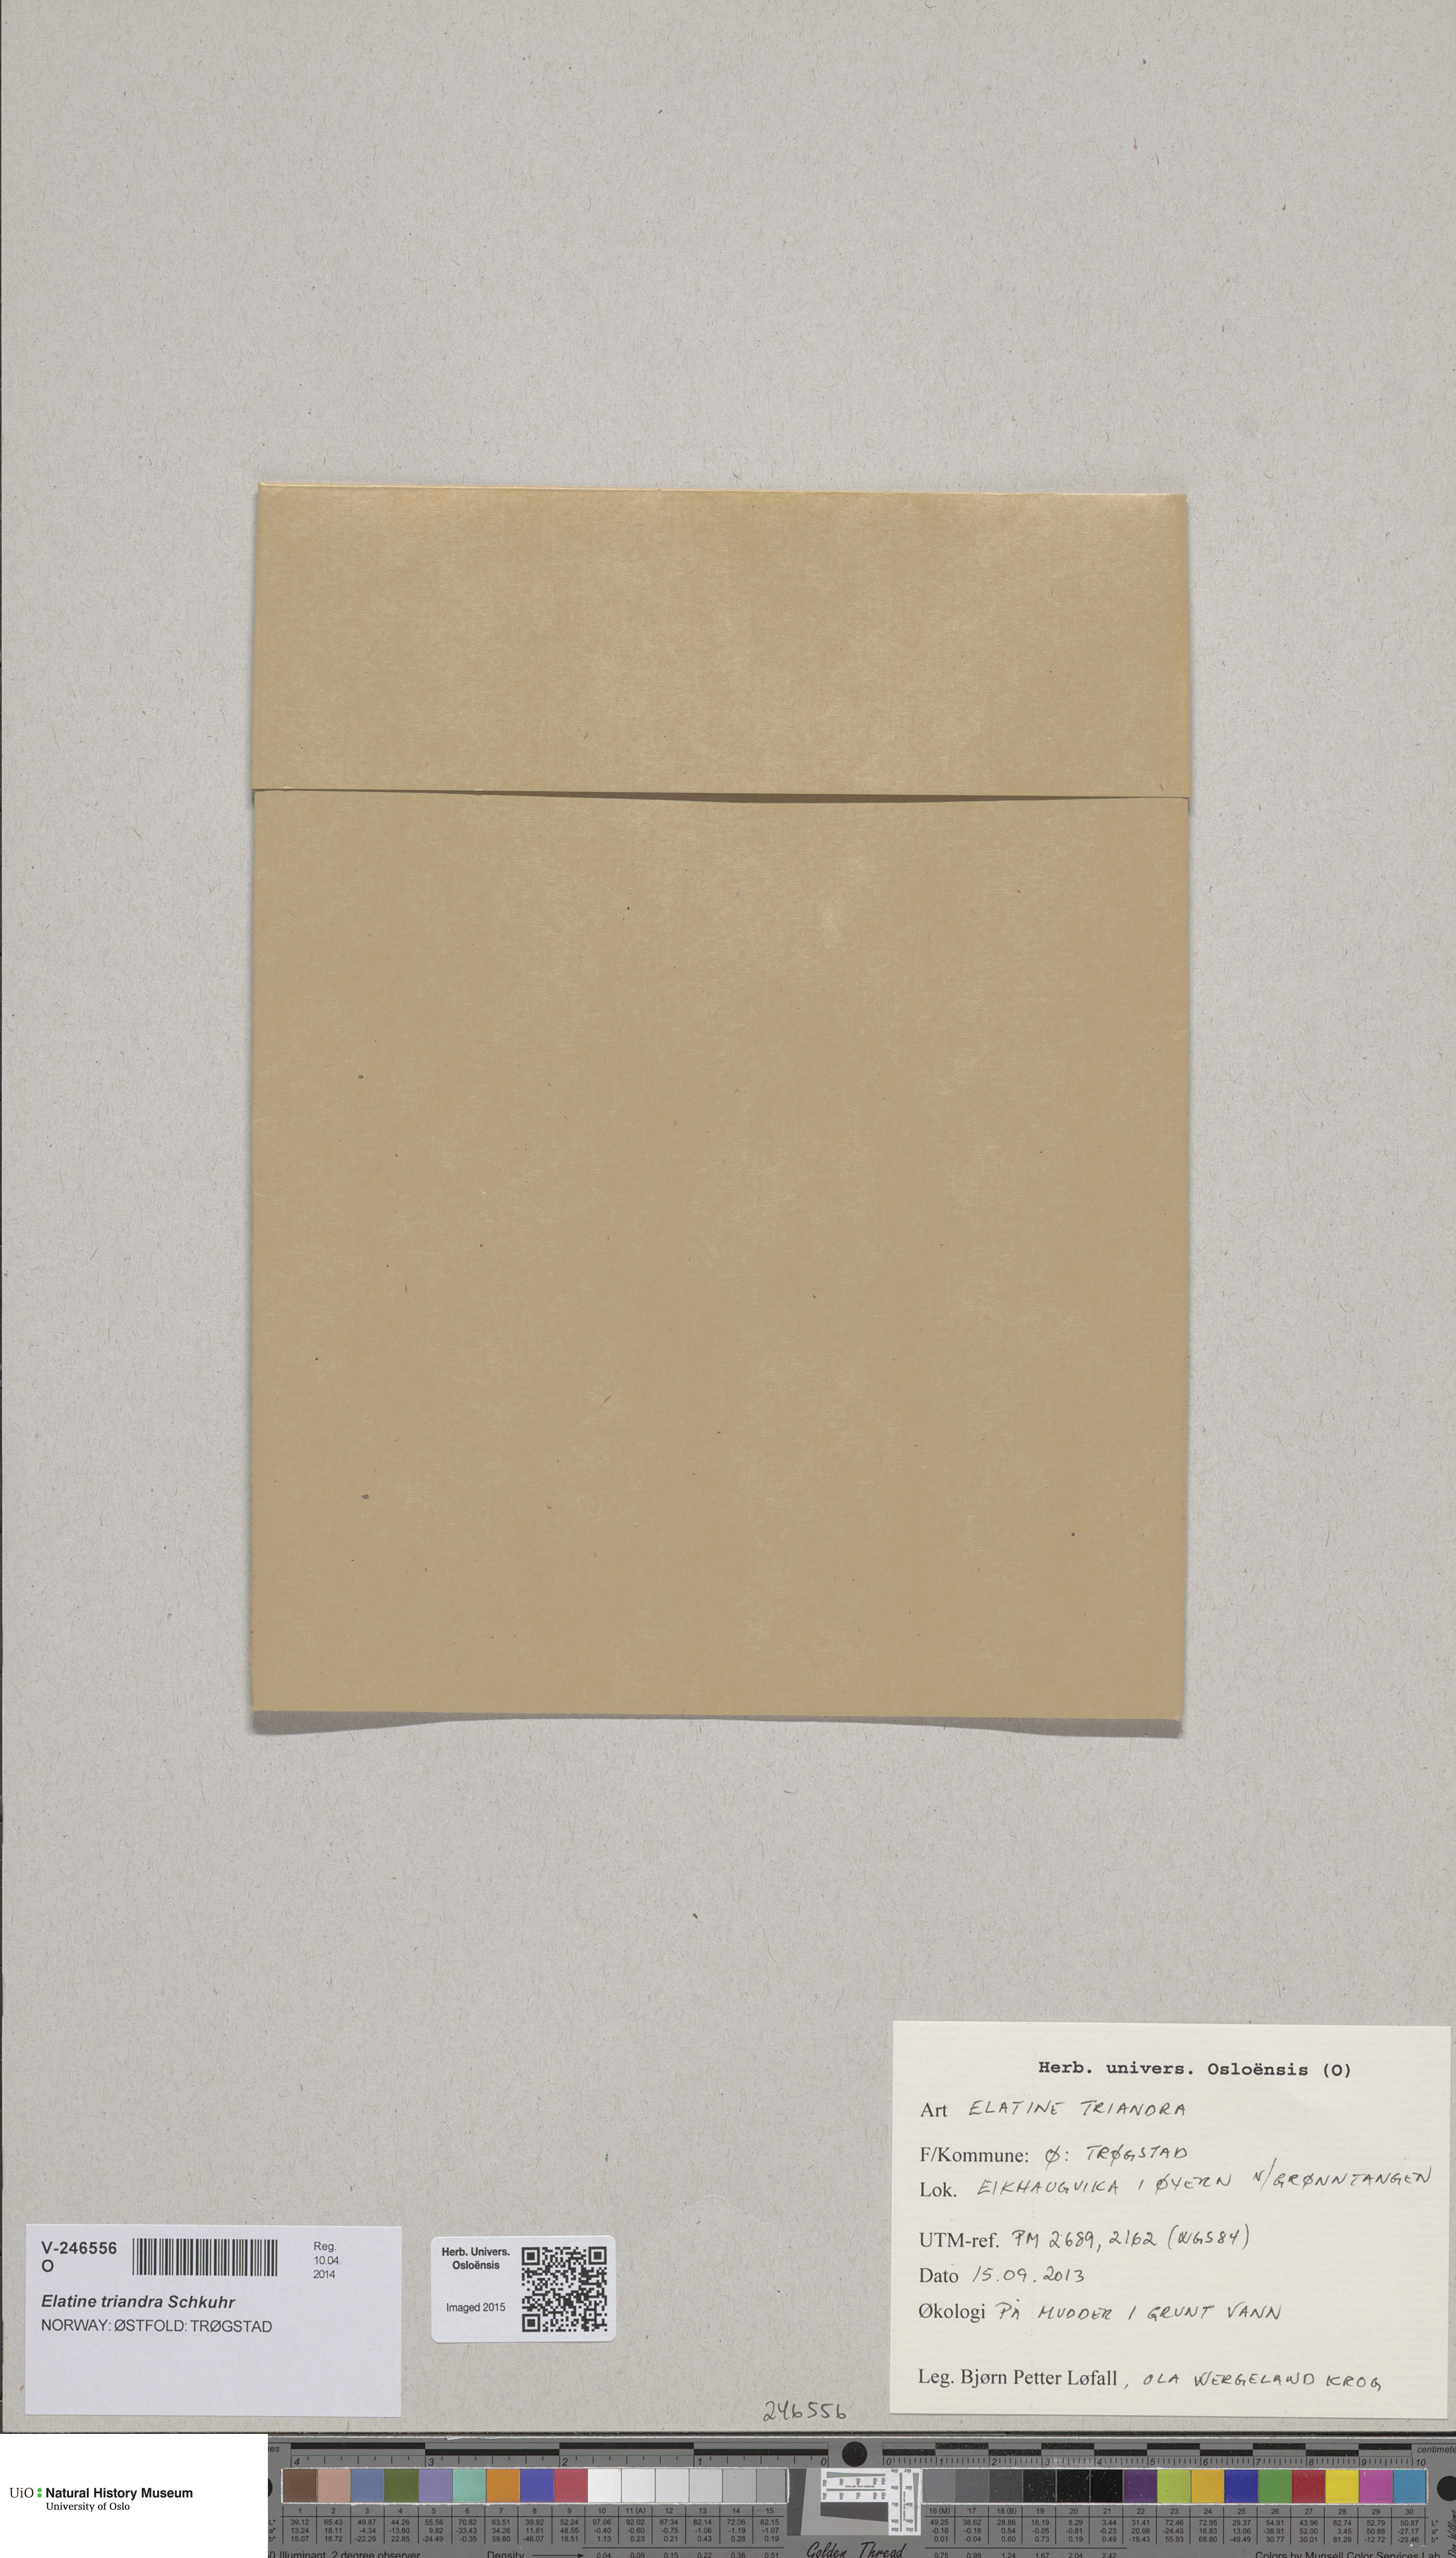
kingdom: Plantae
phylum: Tracheophyta
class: Magnoliopsida
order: Malpighiales
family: Elatinaceae
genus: Elatine
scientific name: Elatine triandra
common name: Three-stamened waterwort
